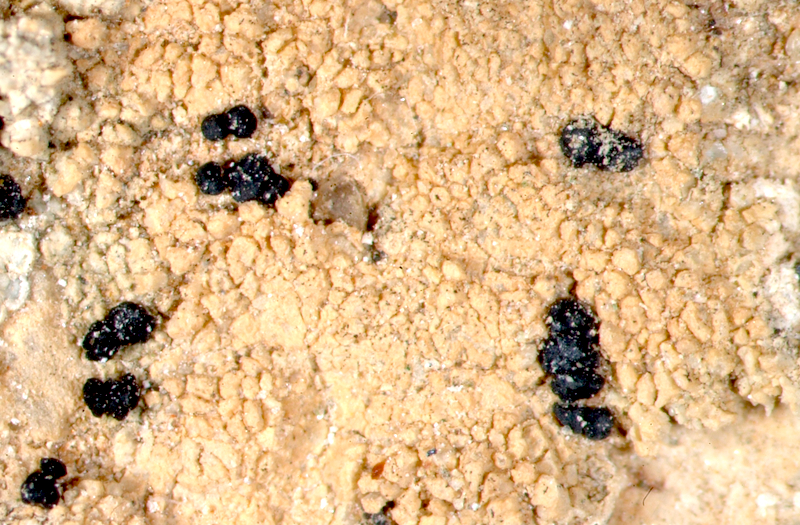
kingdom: Fungi
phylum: Ascomycota
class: Lecanoromycetes
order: Lecanorales
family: Ramalinaceae
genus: Bacidia
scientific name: Bacidia
